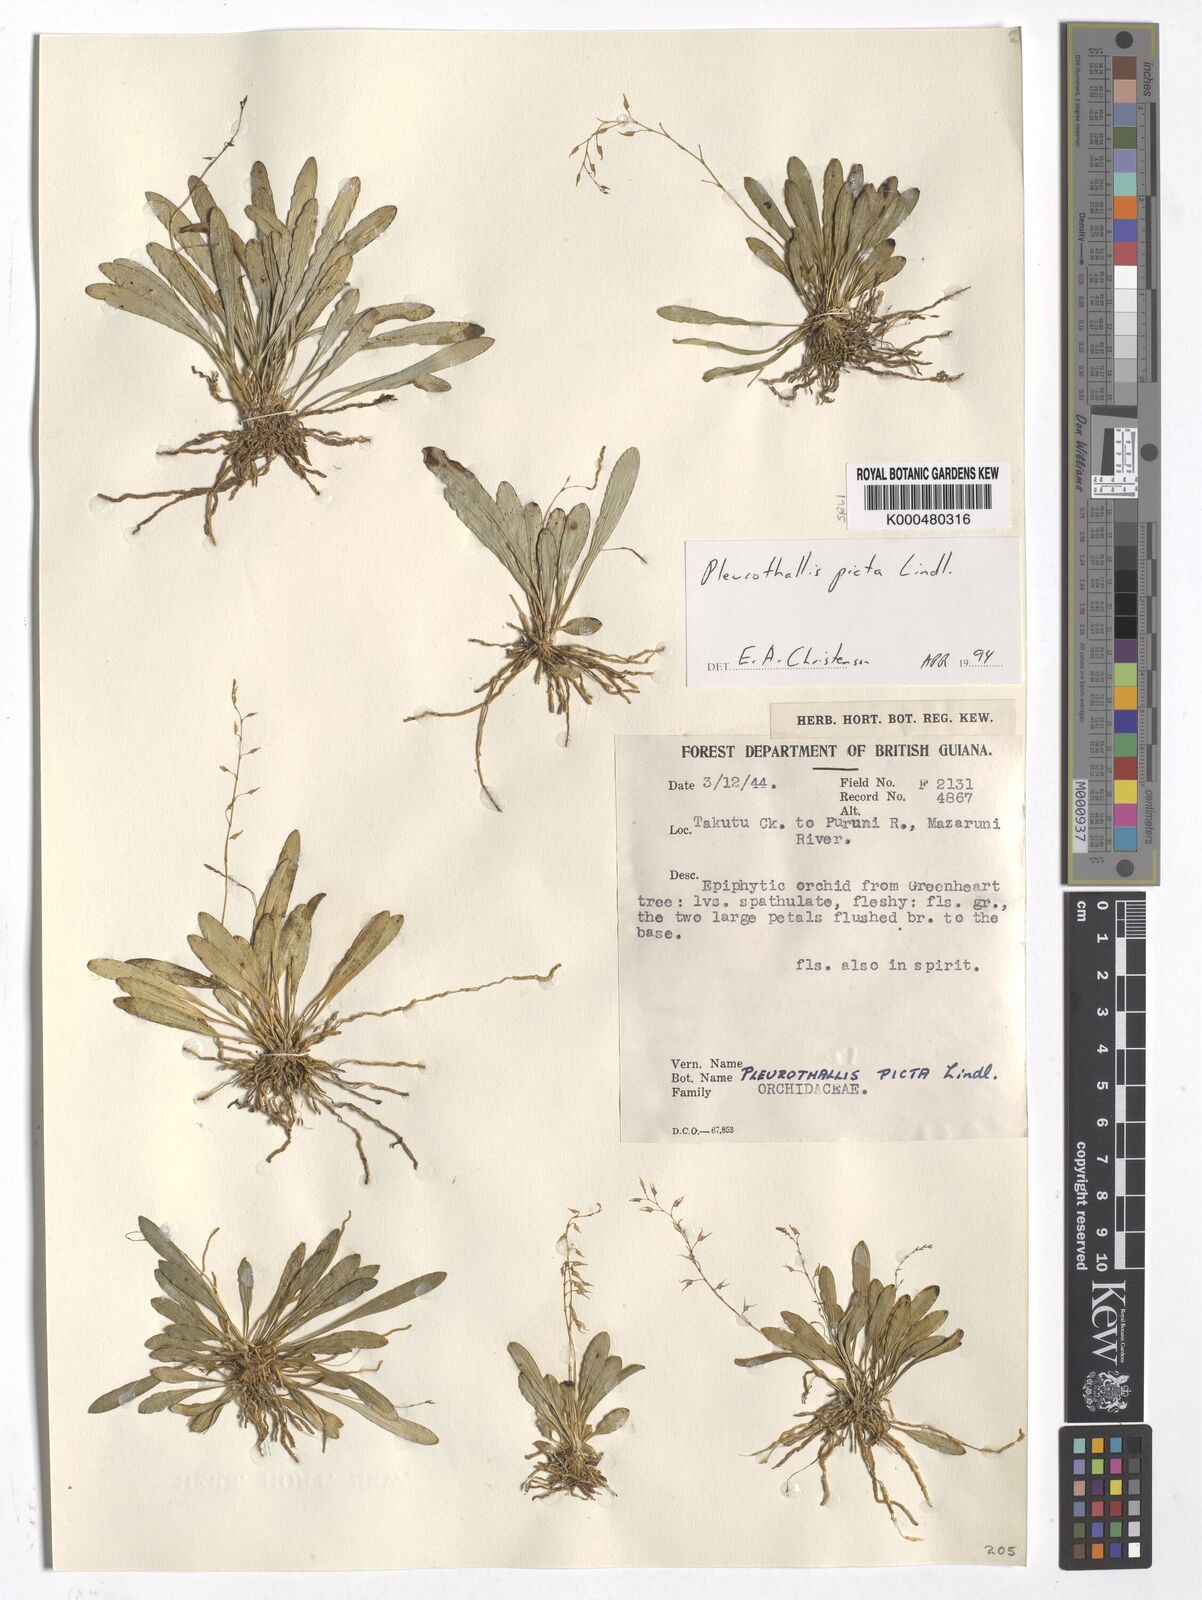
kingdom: Plantae
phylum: Tracheophyta
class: Liliopsida
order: Asparagales
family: Orchidaceae
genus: Specklinia
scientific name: Specklinia picta
